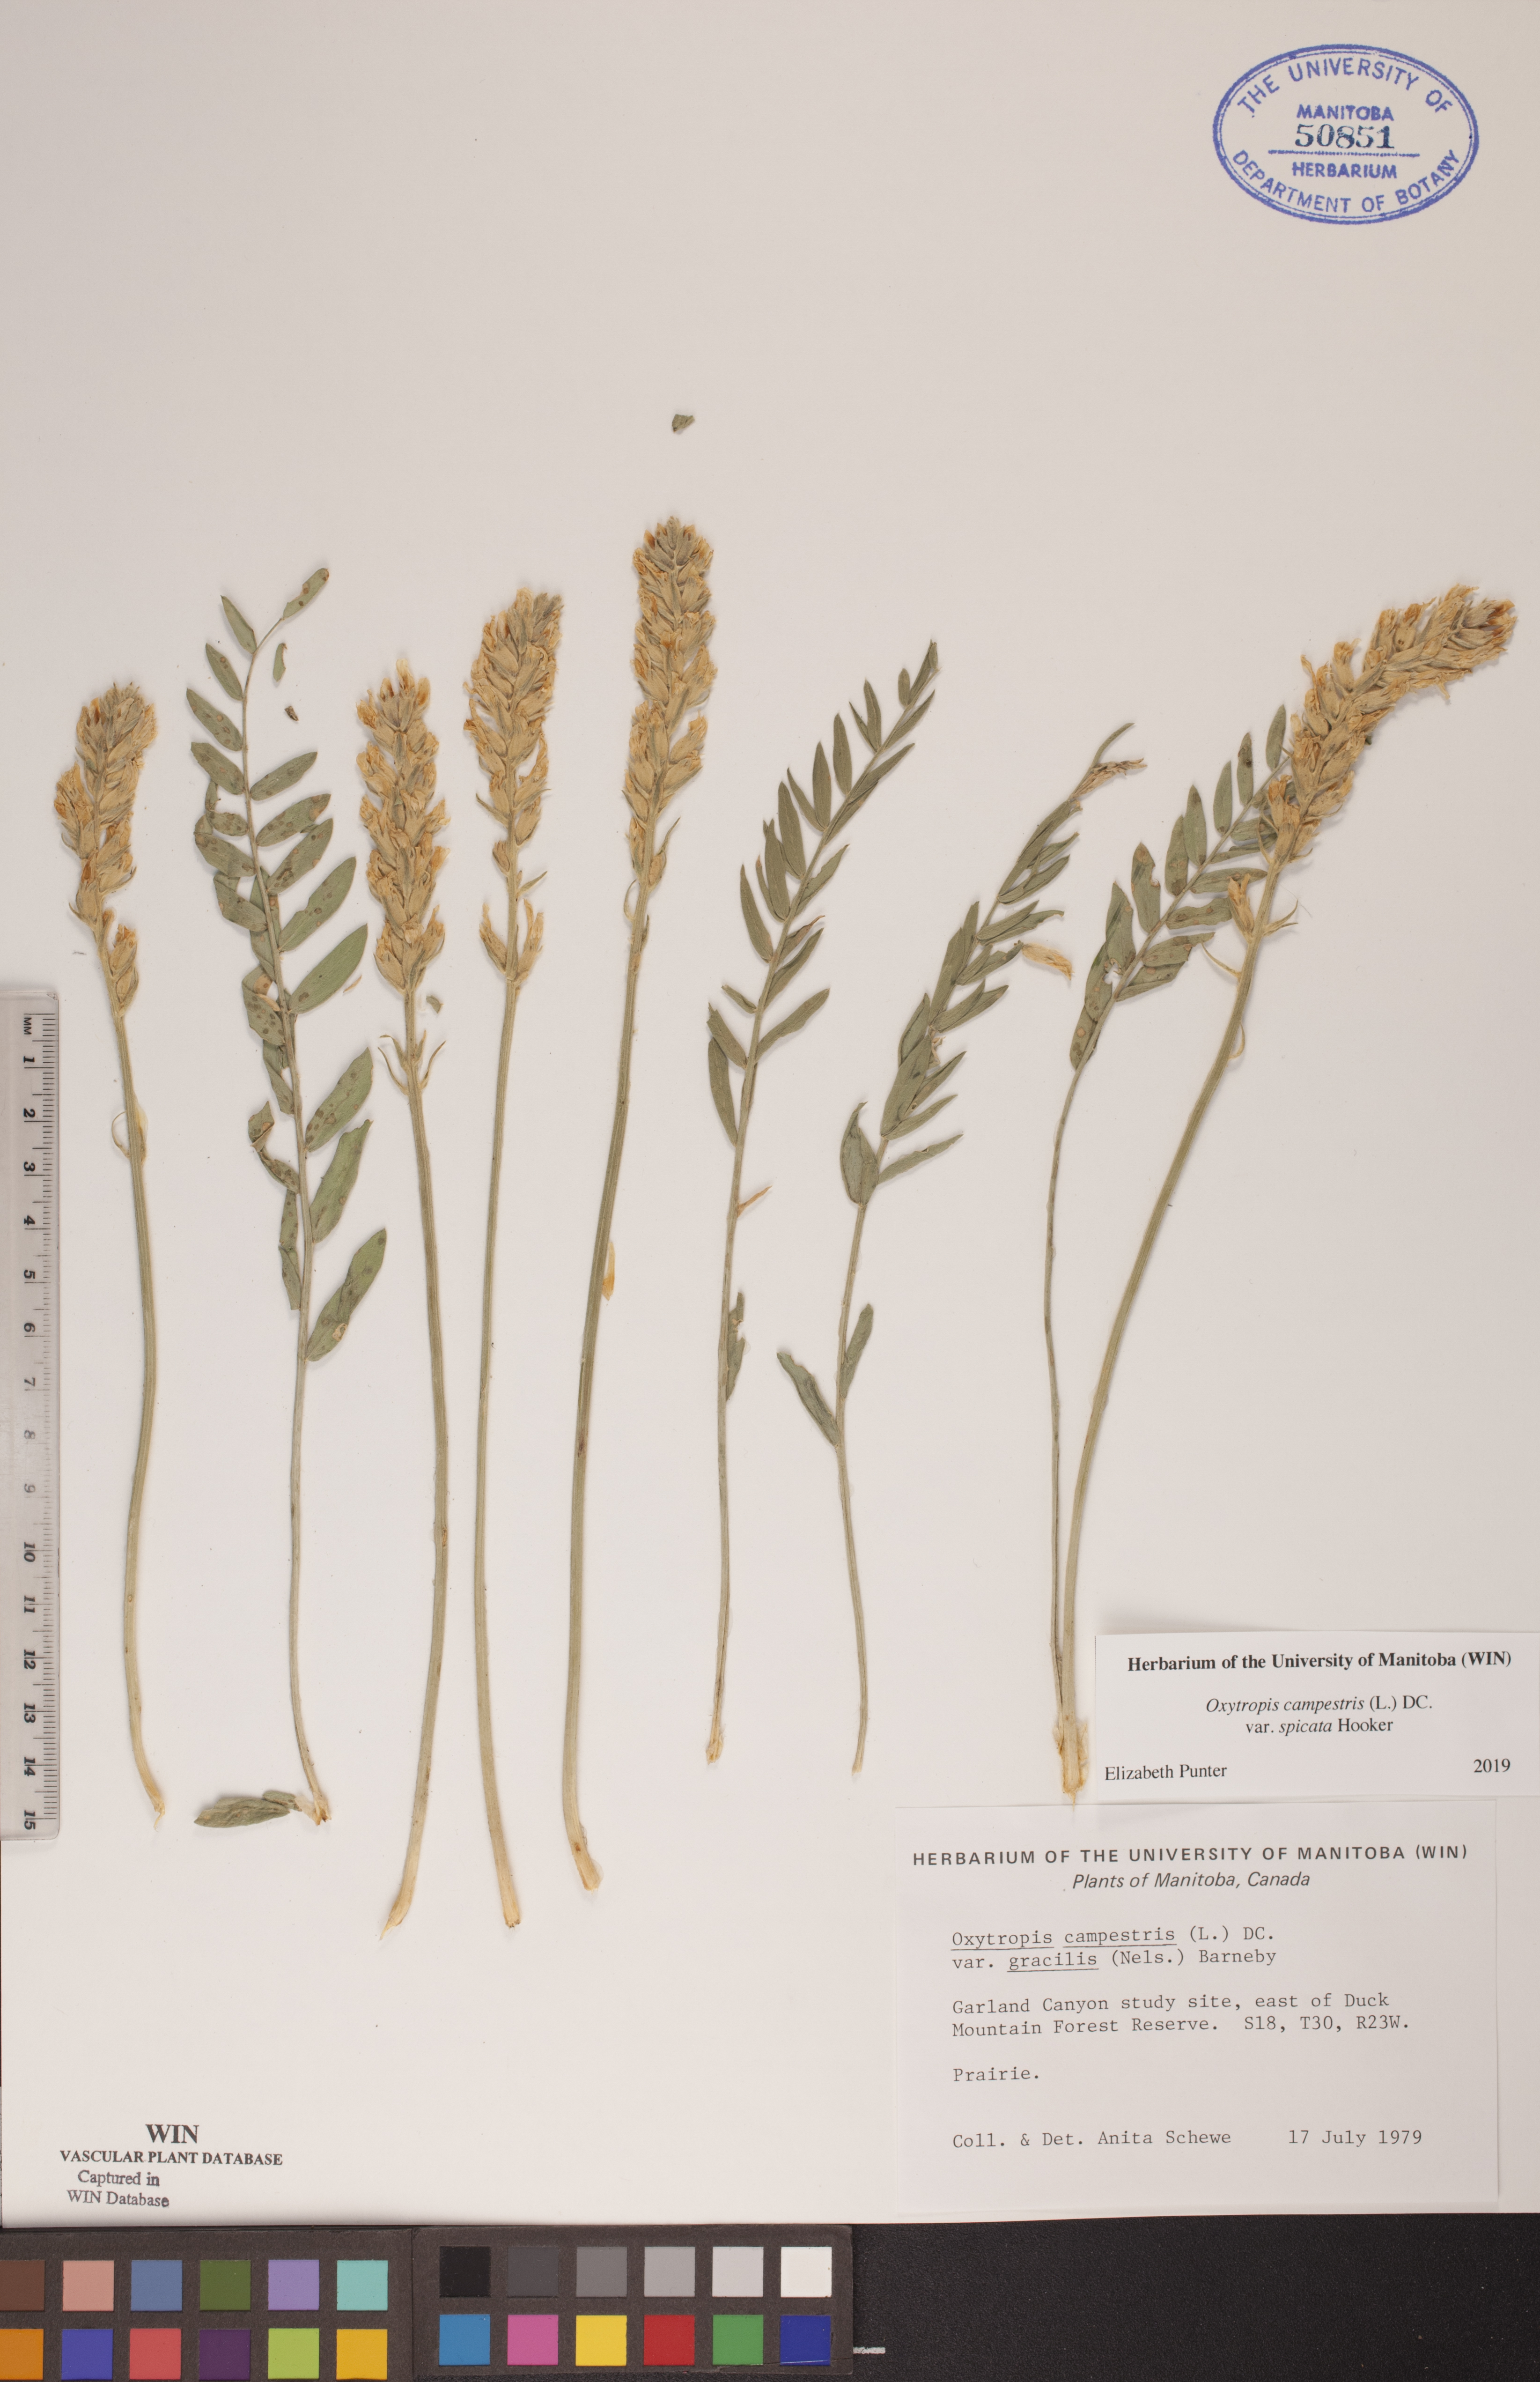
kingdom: Plantae
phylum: Tracheophyta
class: Magnoliopsida
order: Fabales
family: Fabaceae
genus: Oxytropis
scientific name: Oxytropis campestris
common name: Field locoweed
